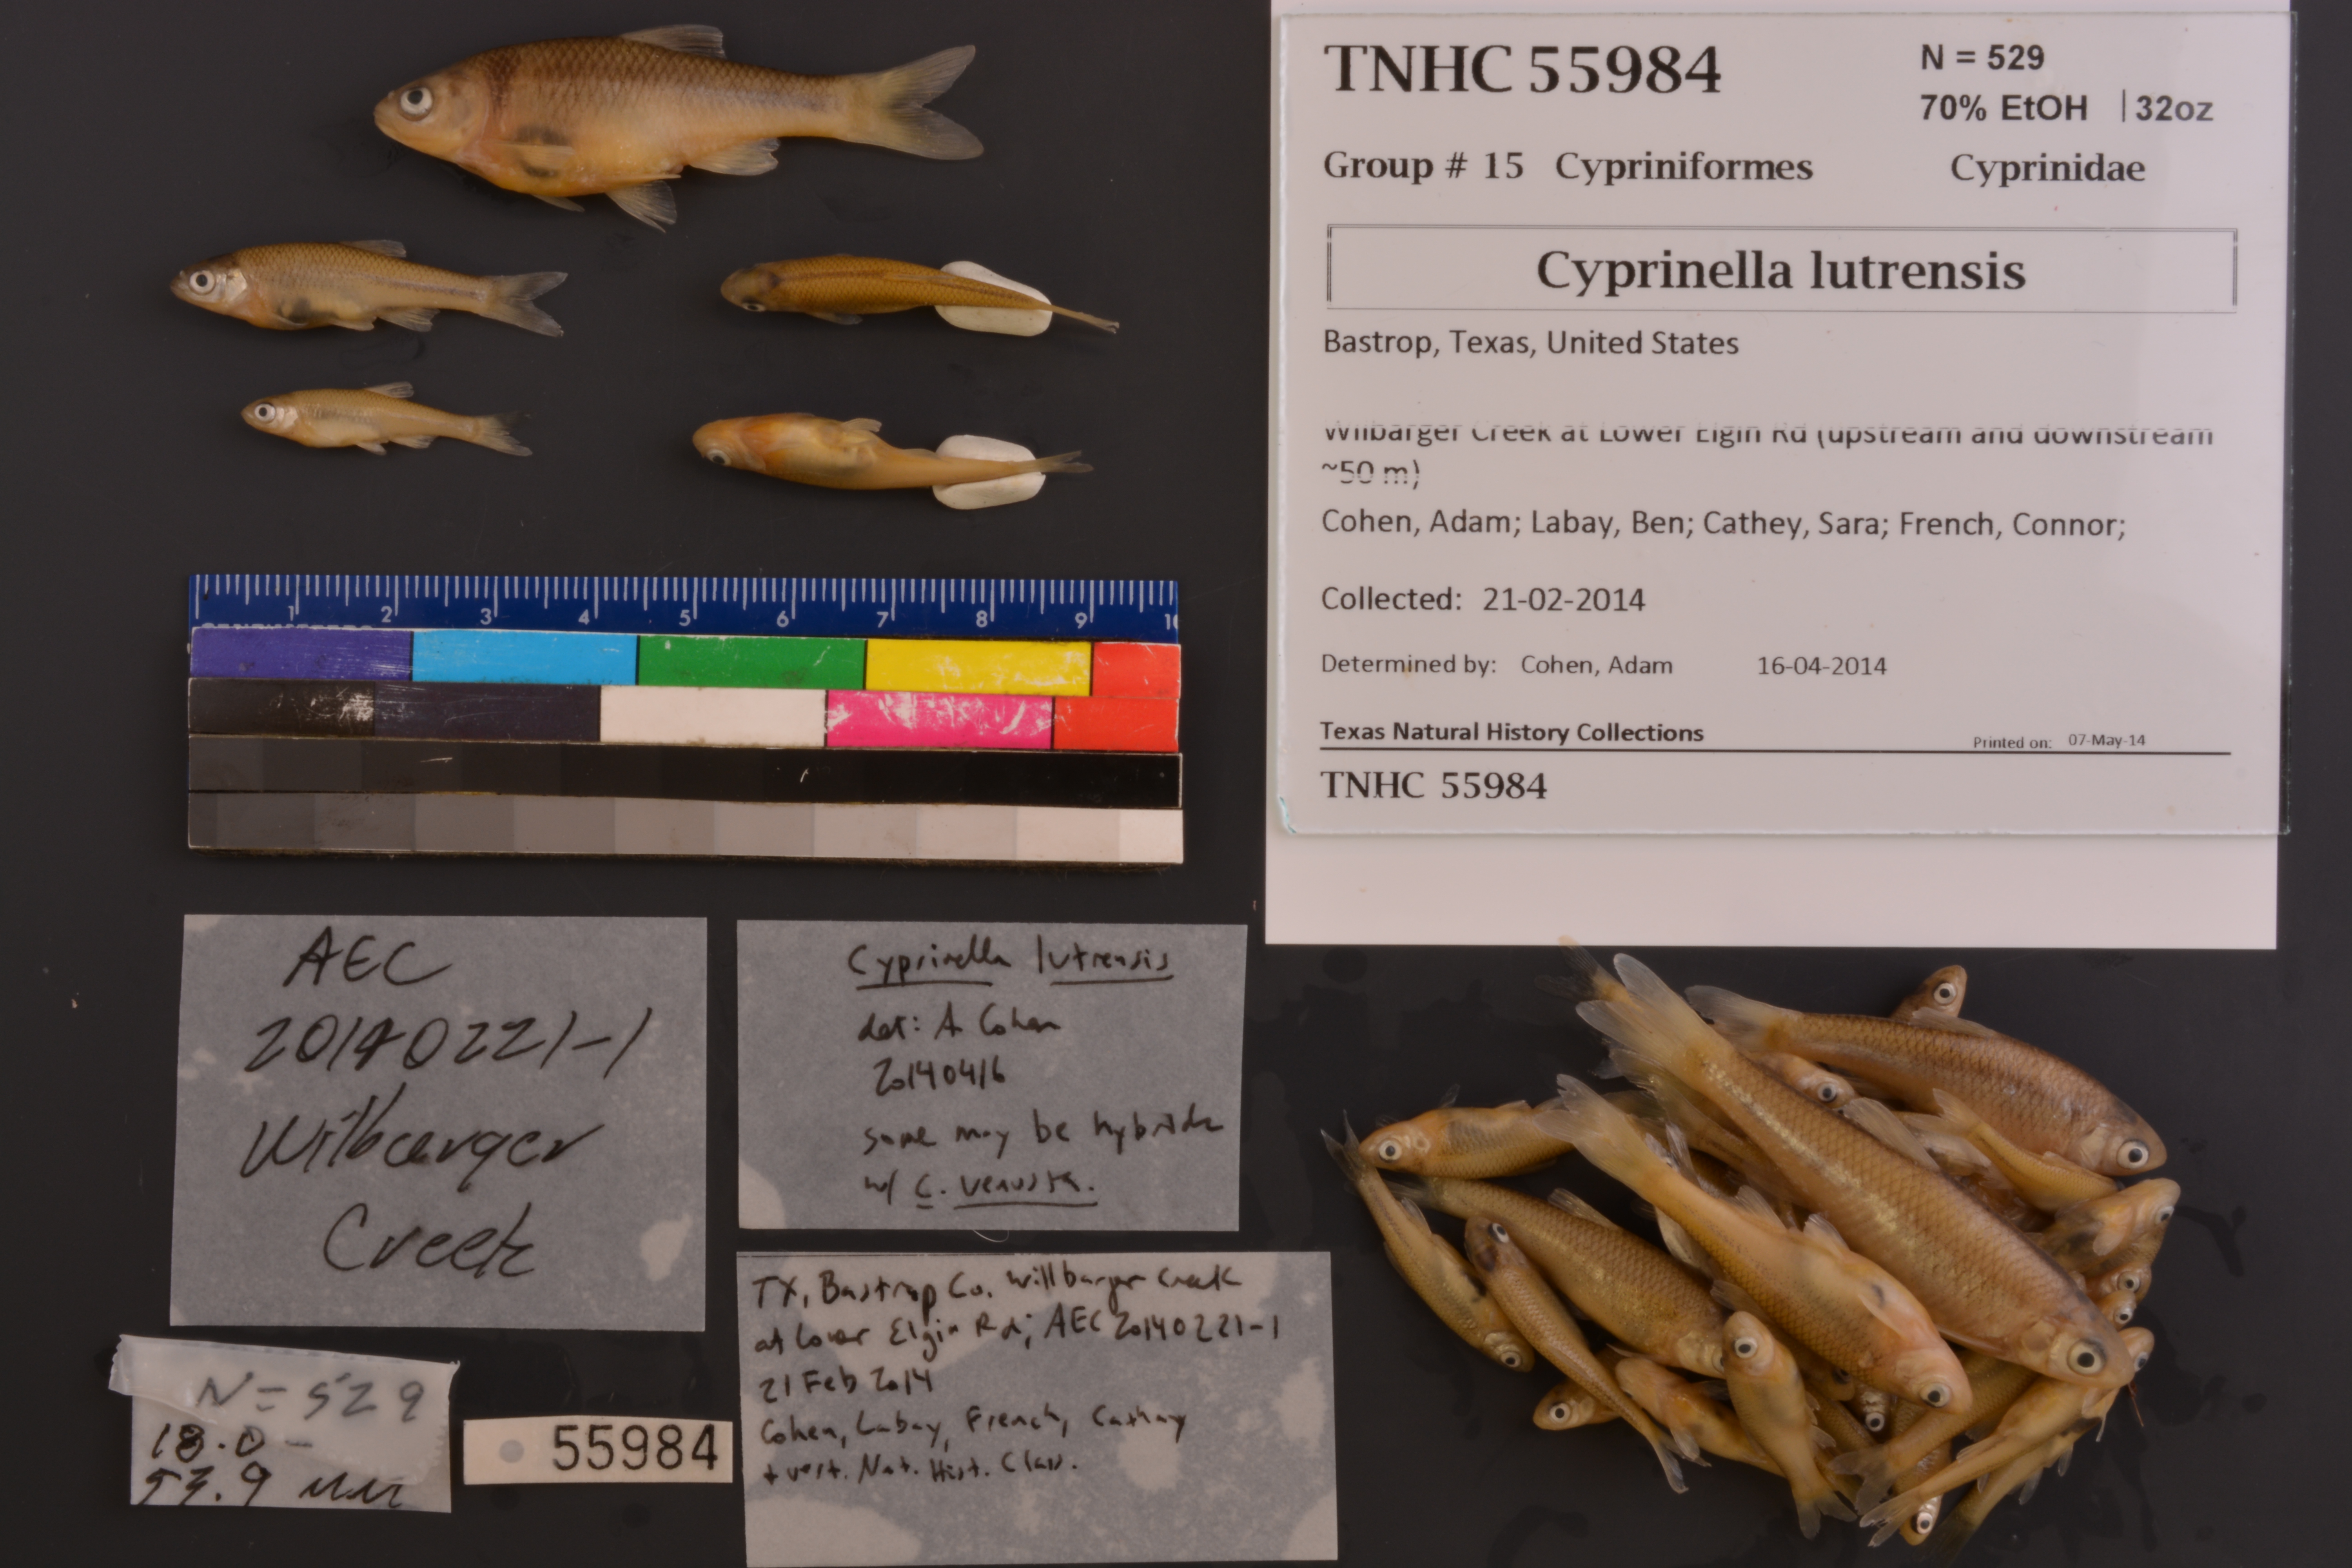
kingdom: Animalia
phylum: Chordata
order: Cypriniformes
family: Cyprinidae
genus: Cyprinella
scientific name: Cyprinella lutrensis
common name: Red shiner
